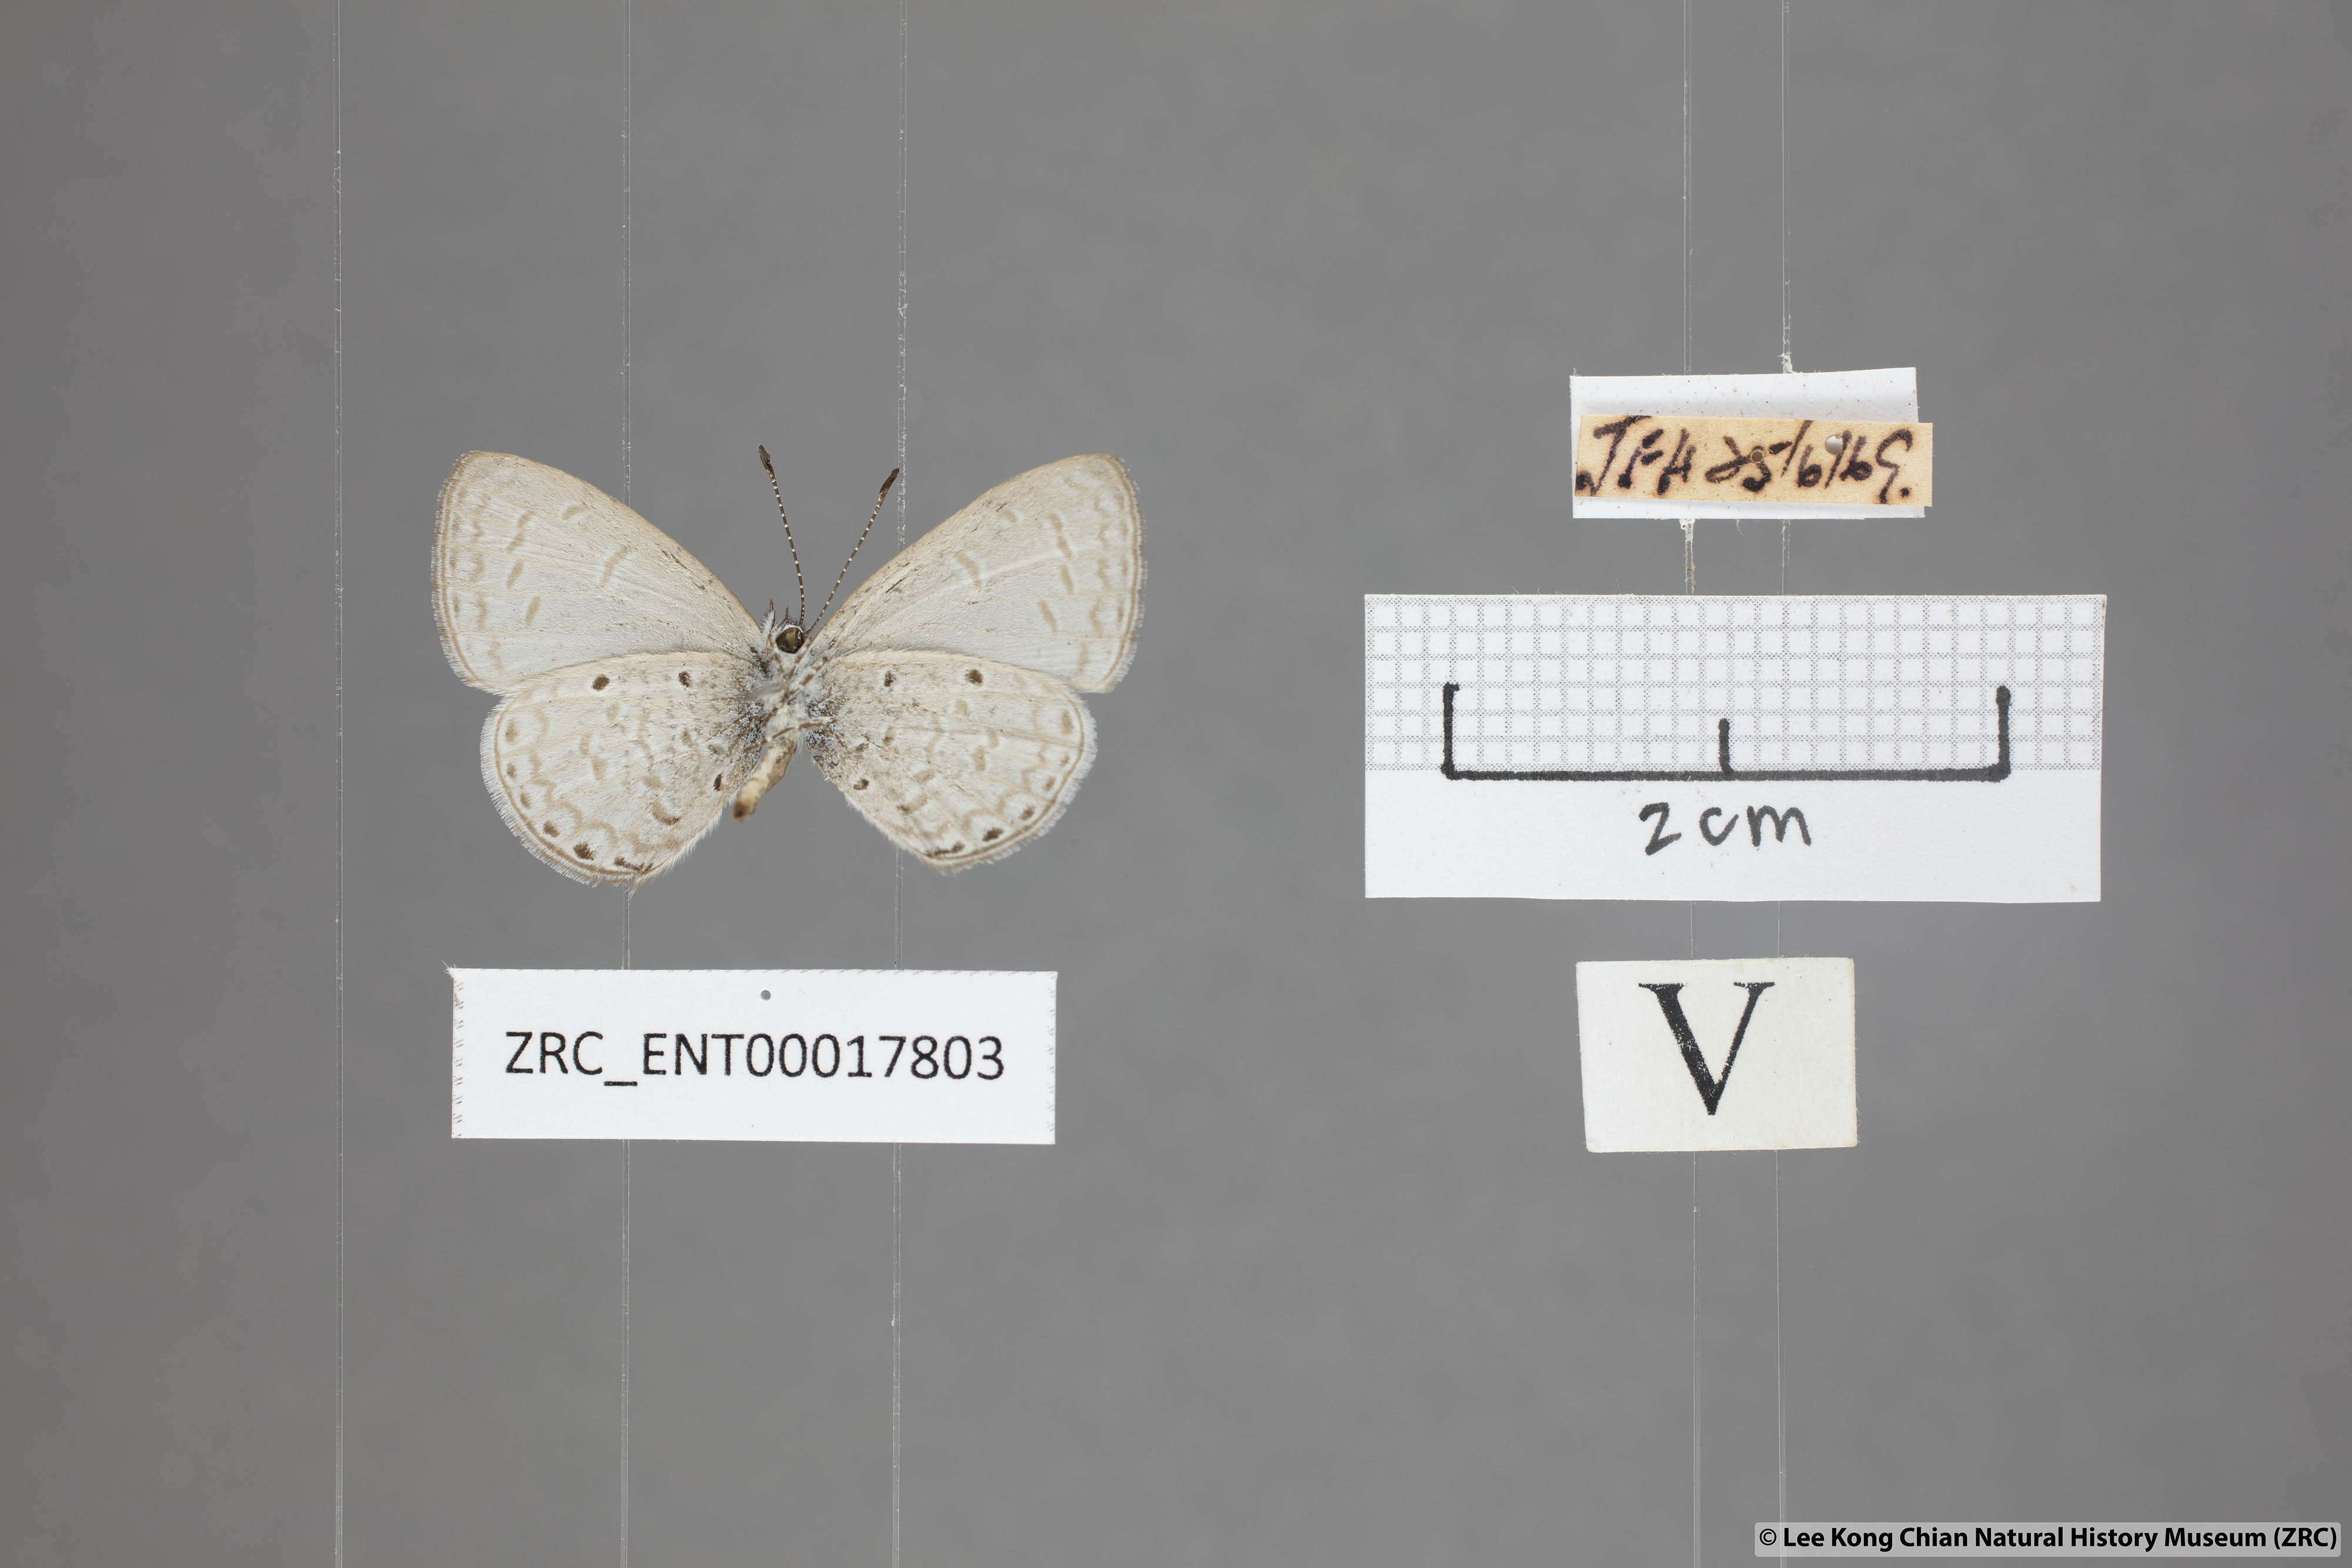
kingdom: Animalia
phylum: Arthropoda
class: Insecta
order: Lepidoptera
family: Lycaenidae
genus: Monodontides
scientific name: Monodontides
